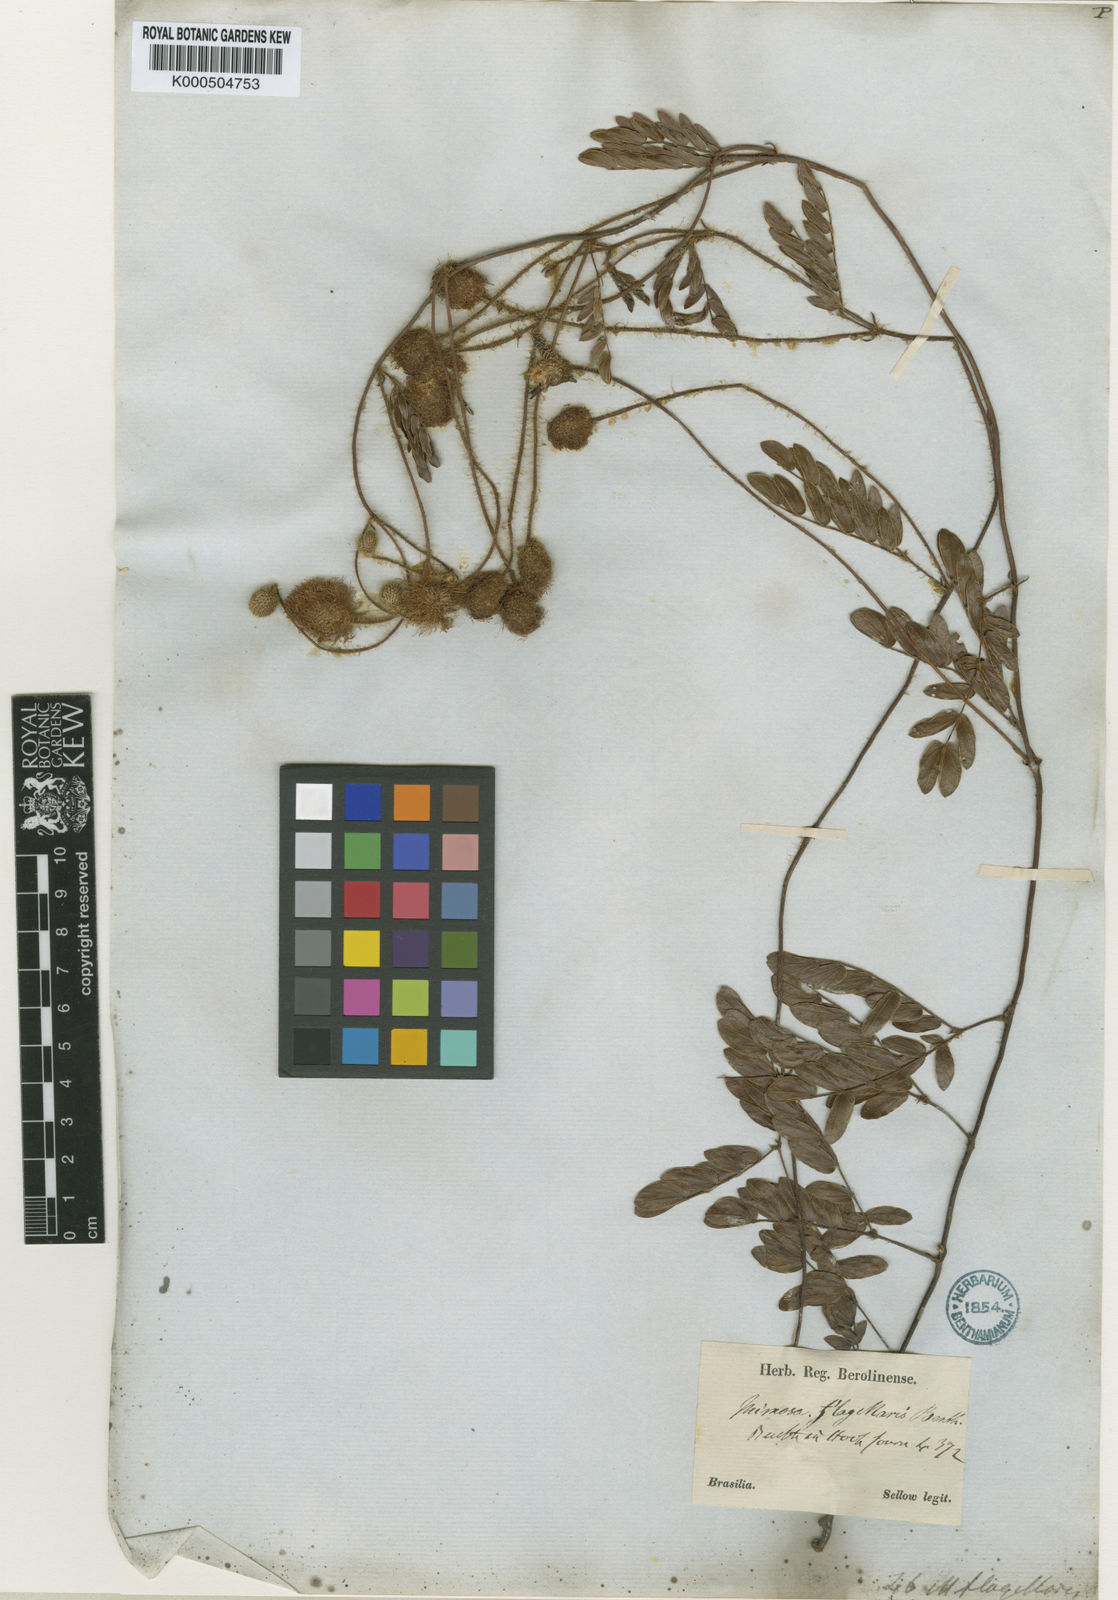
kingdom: Plantae
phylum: Tracheophyta
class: Magnoliopsida
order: Fabales
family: Fabaceae
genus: Mimosa
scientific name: Mimosa flagellaris
